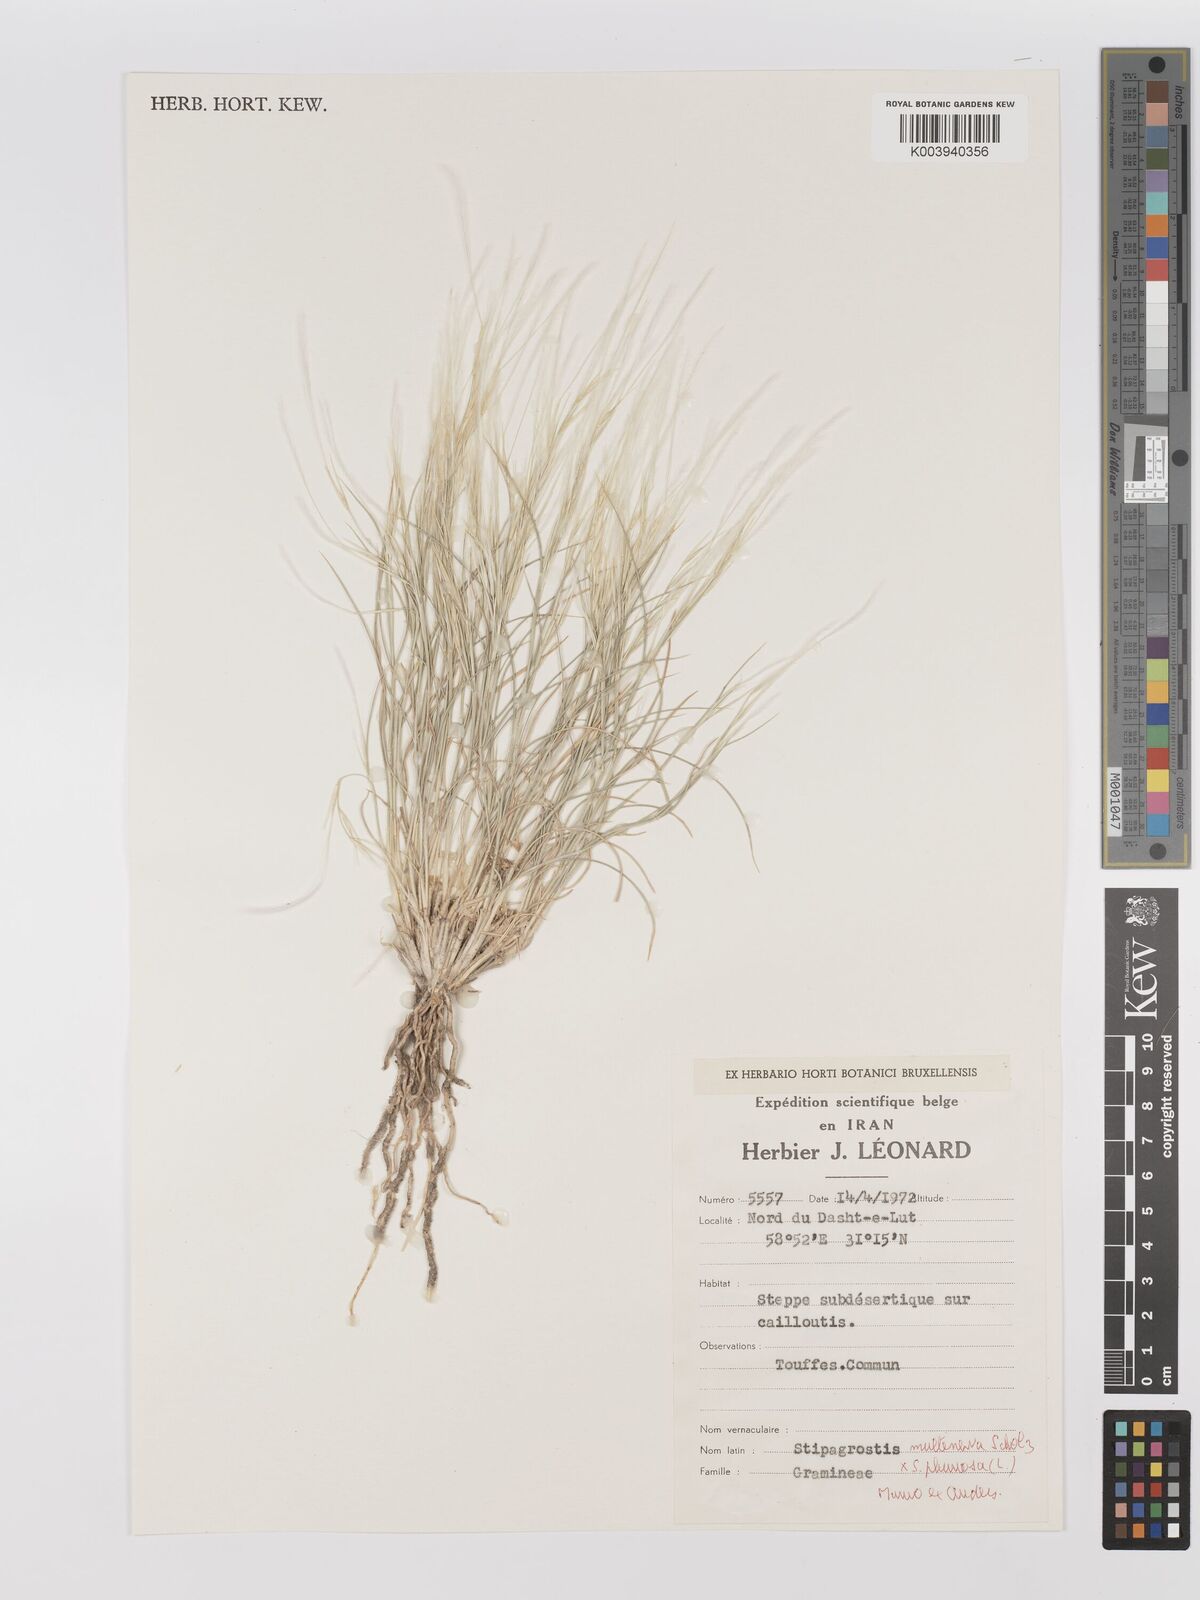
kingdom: Plantae
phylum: Tracheophyta
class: Liliopsida
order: Poales
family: Poaceae
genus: Stipagrostis
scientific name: Stipagrostis
